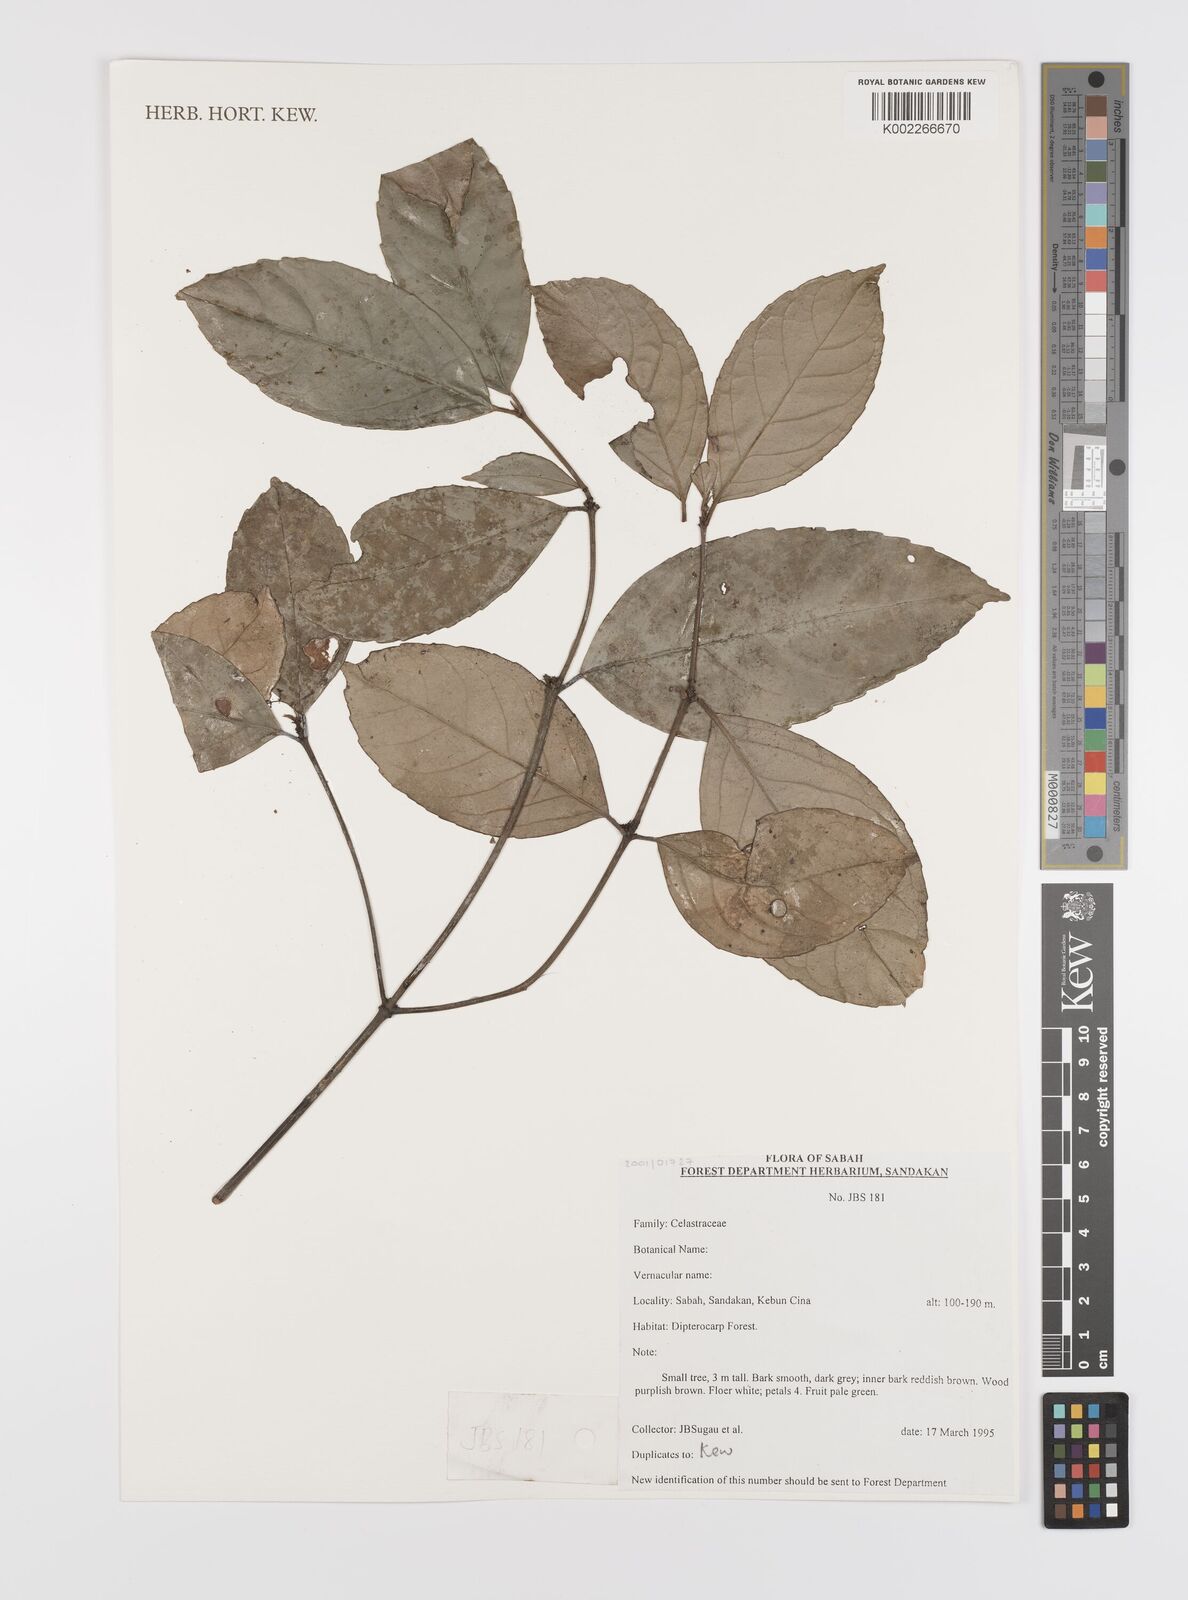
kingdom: Plantae
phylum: Tracheophyta
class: Magnoliopsida
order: Celastrales
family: Celastraceae
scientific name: Celastraceae
